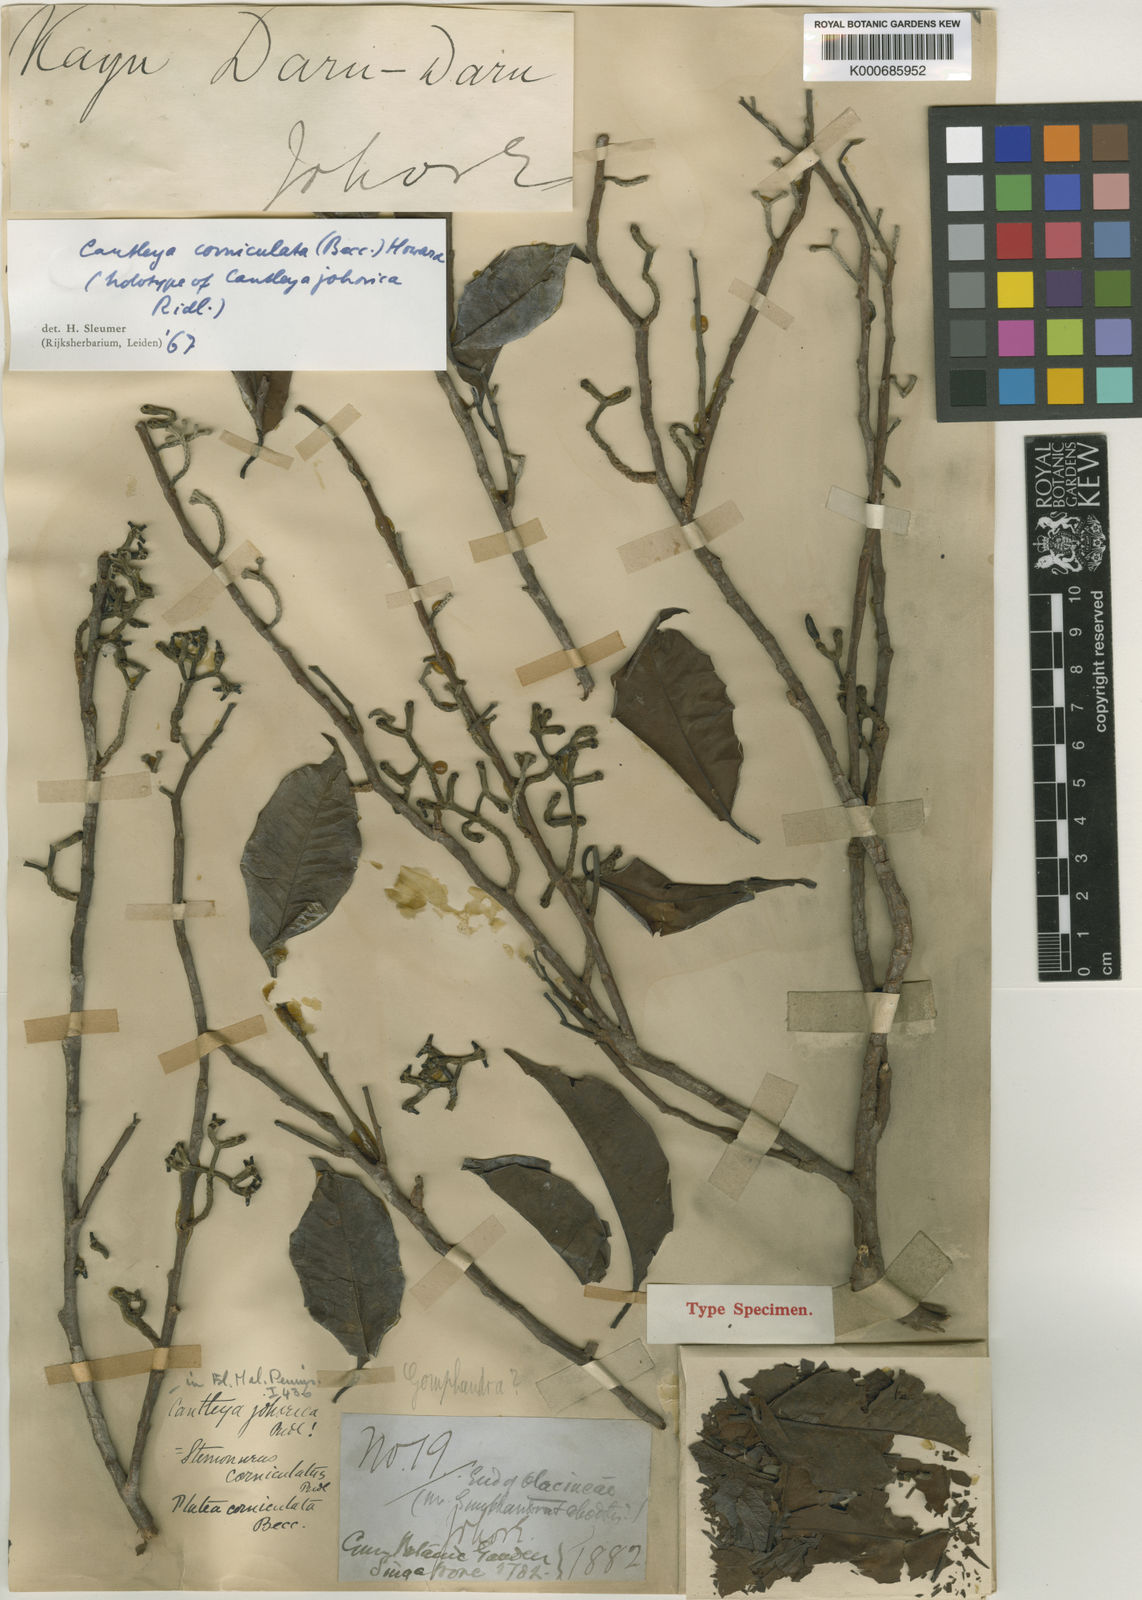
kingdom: Plantae
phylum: Tracheophyta
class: Magnoliopsida
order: Cardiopteridales
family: Stemonuraceae
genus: Cantleya
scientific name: Cantleya corniculata
